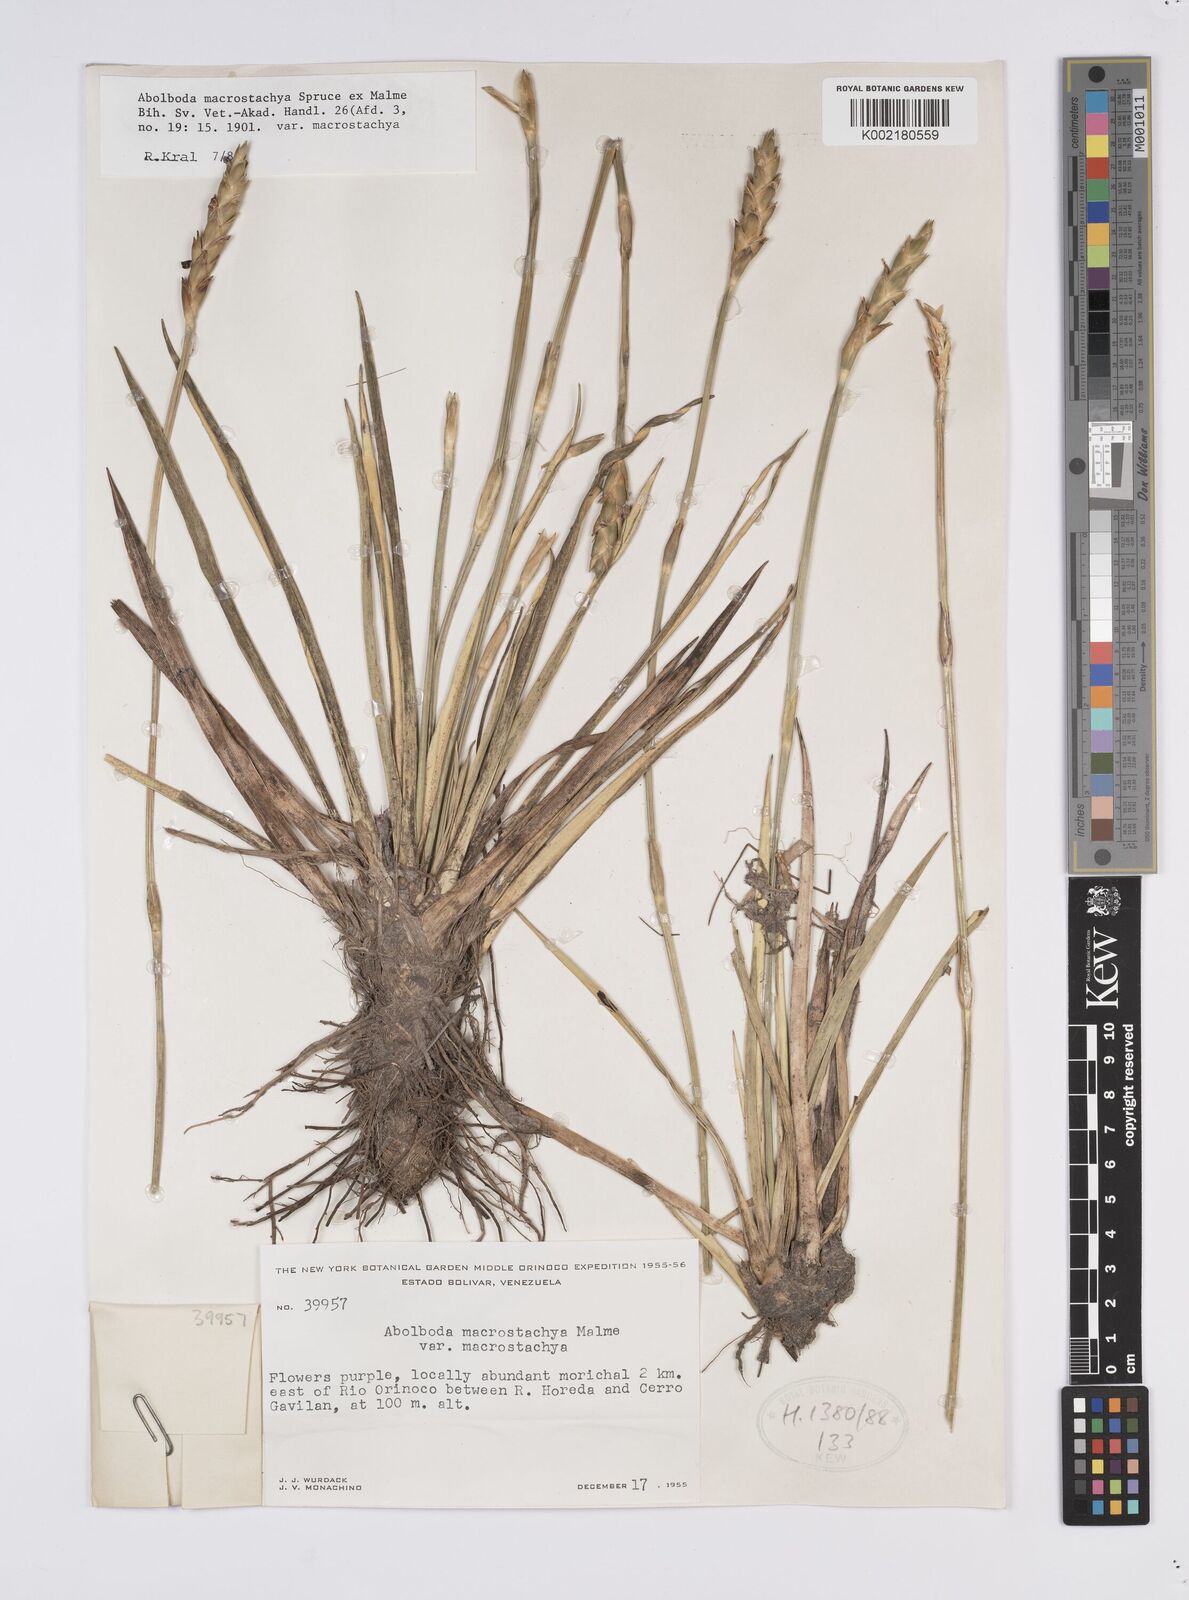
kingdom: Plantae
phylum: Tracheophyta
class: Liliopsida
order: Poales
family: Xyridaceae
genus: Abolboda
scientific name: Abolboda macrostachya
